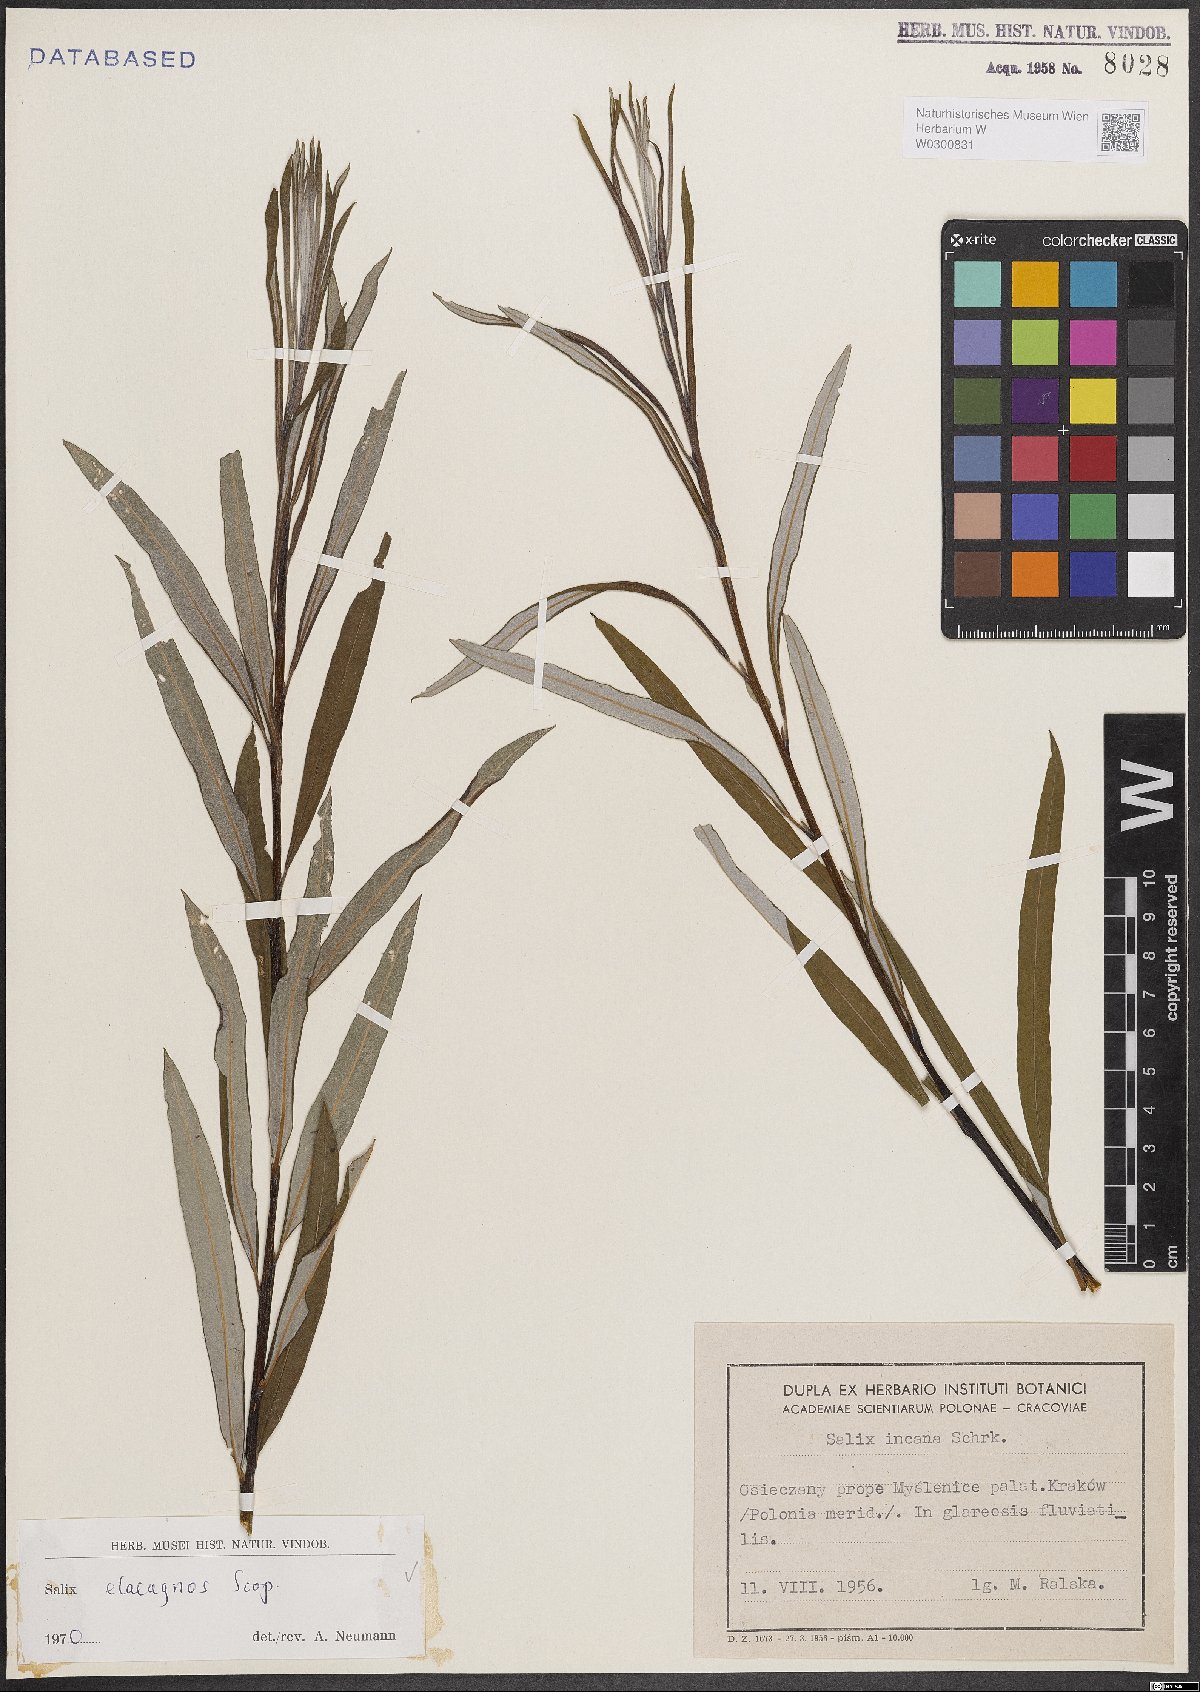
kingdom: Plantae
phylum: Tracheophyta
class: Magnoliopsida
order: Malpighiales
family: Salicaceae
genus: Salix
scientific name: Salix eleagnos
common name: Elaeagnus willow
